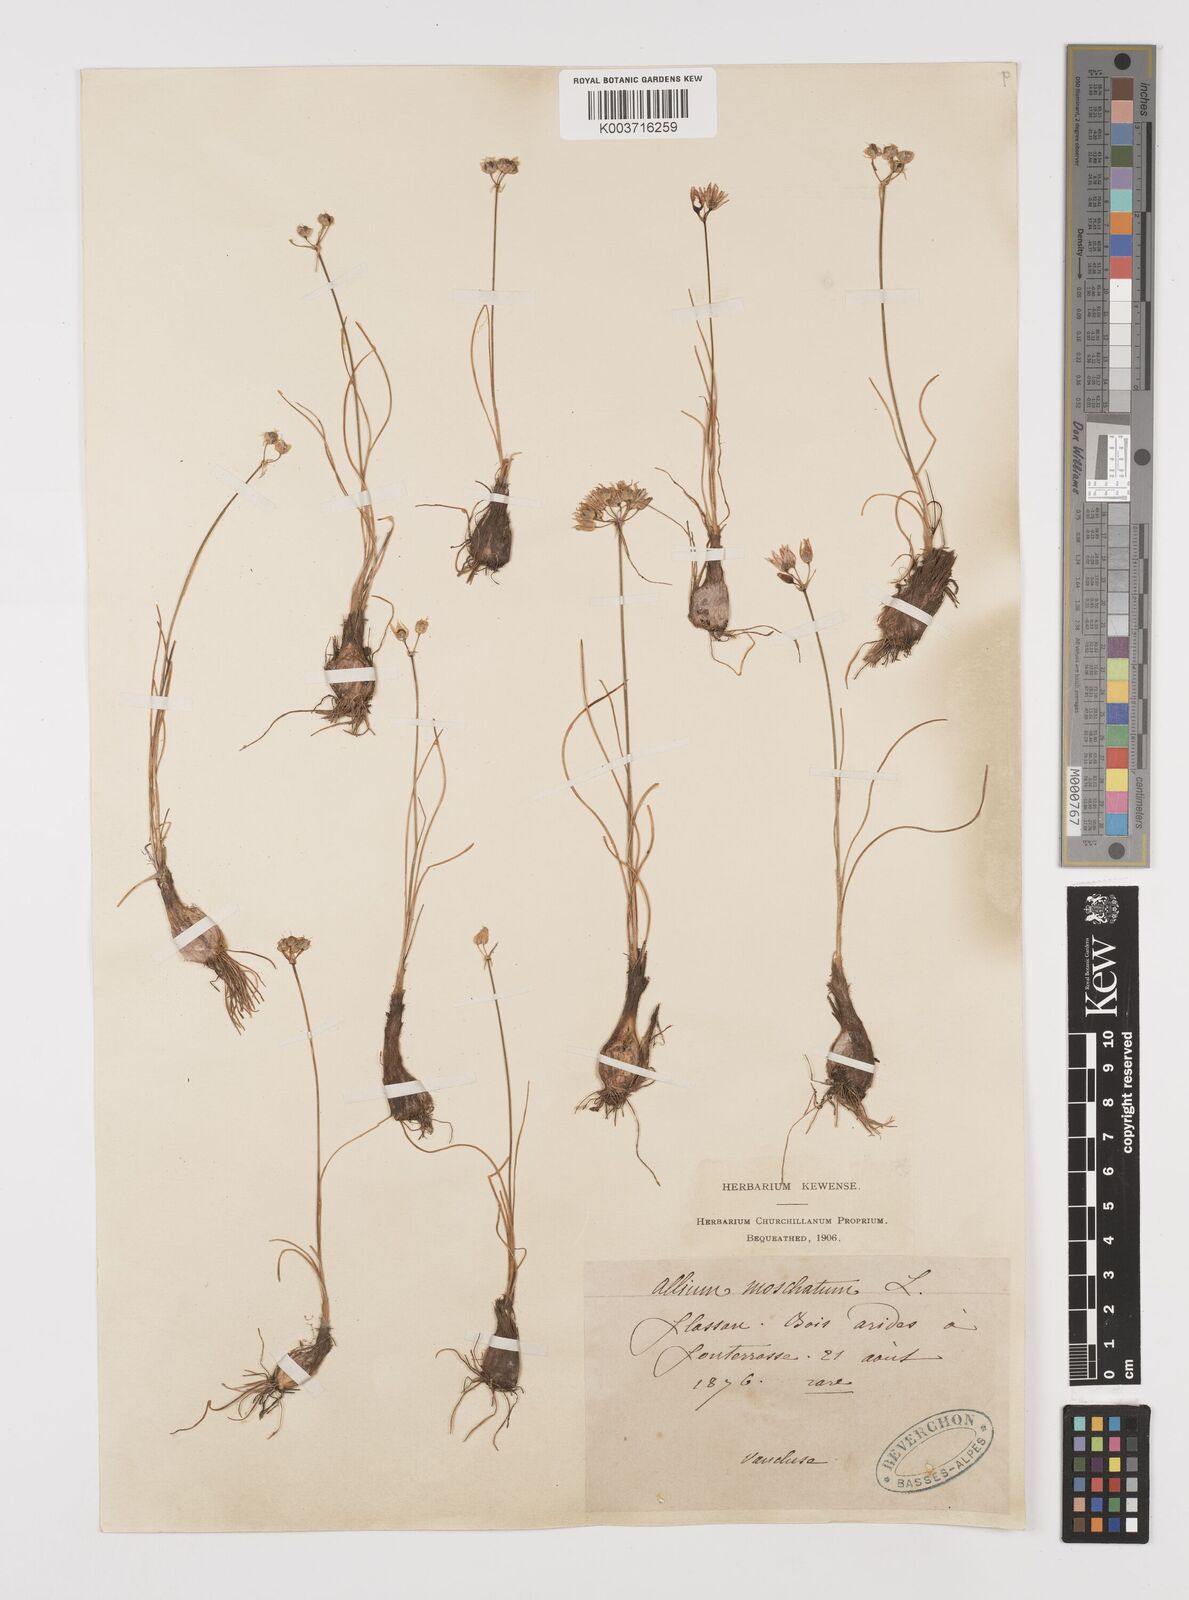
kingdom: Plantae
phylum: Tracheophyta
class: Liliopsida
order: Asparagales
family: Amaryllidaceae
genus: Allium
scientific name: Allium moschatum
